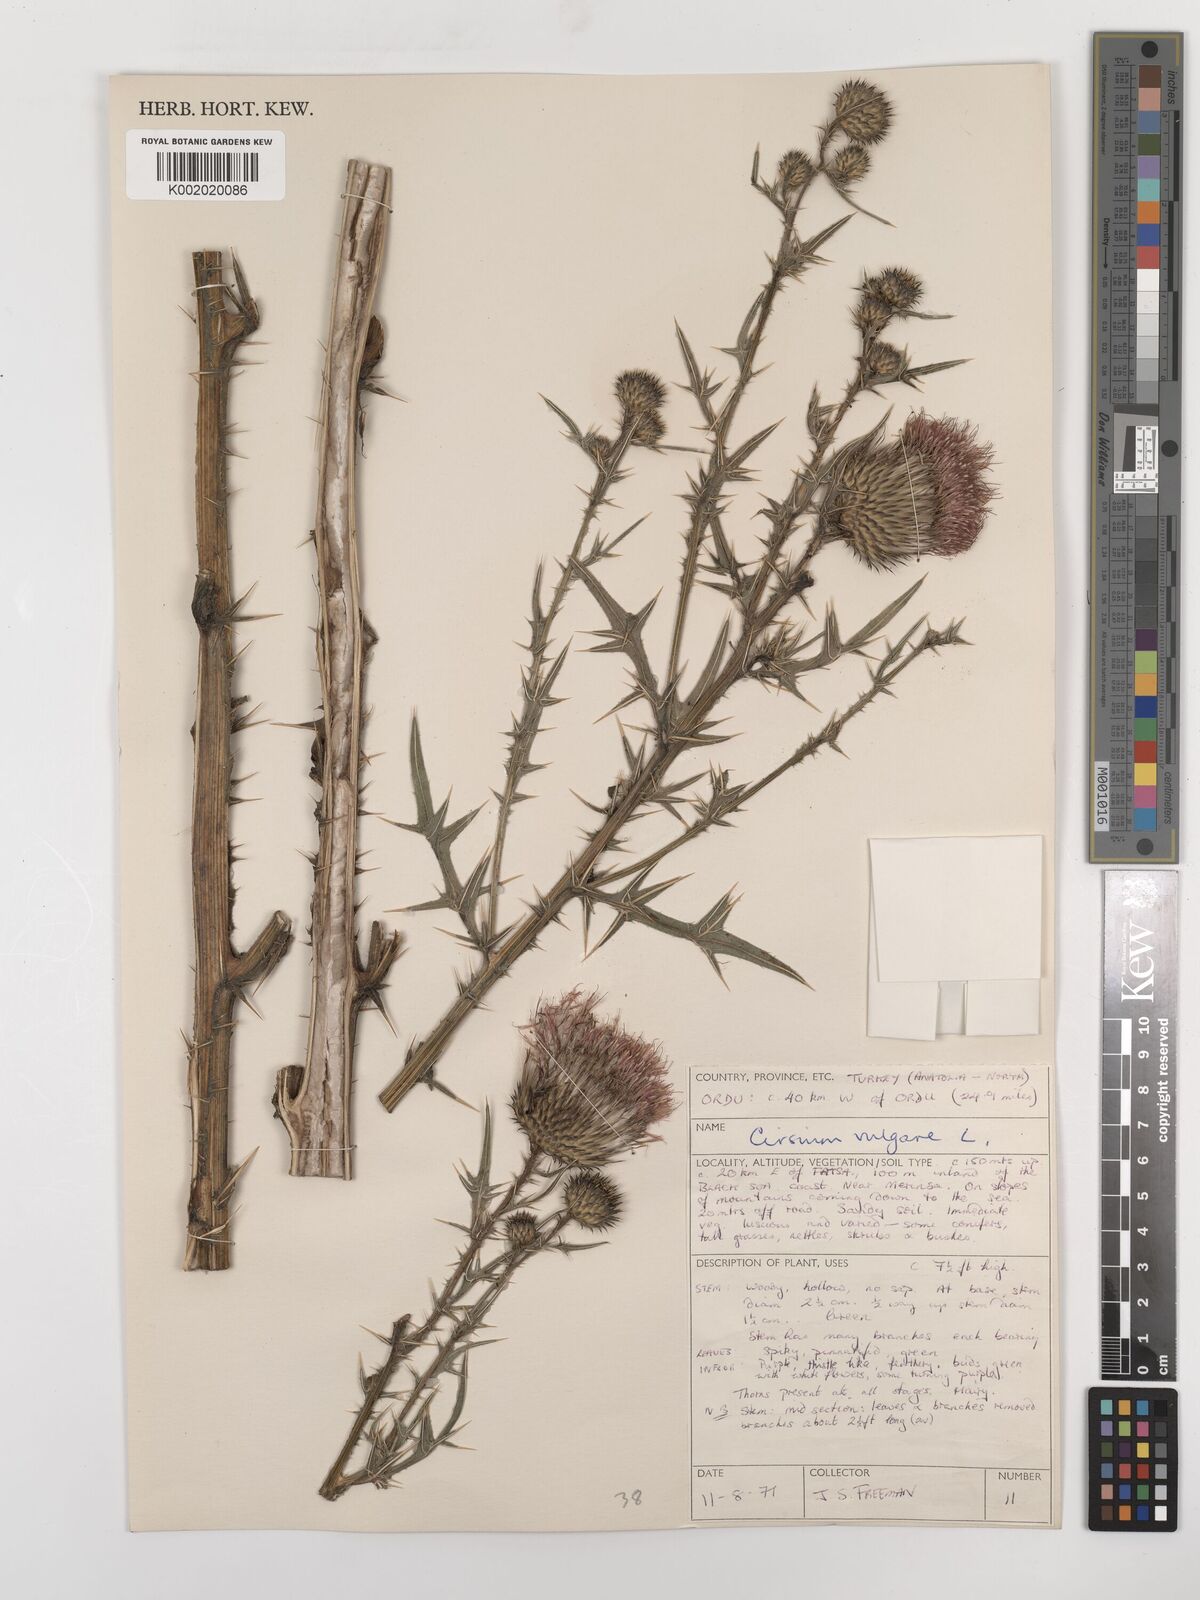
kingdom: Plantae
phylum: Tracheophyta
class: Magnoliopsida
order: Asterales
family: Asteraceae
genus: Cirsium
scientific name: Cirsium vulgare
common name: Bull thistle
